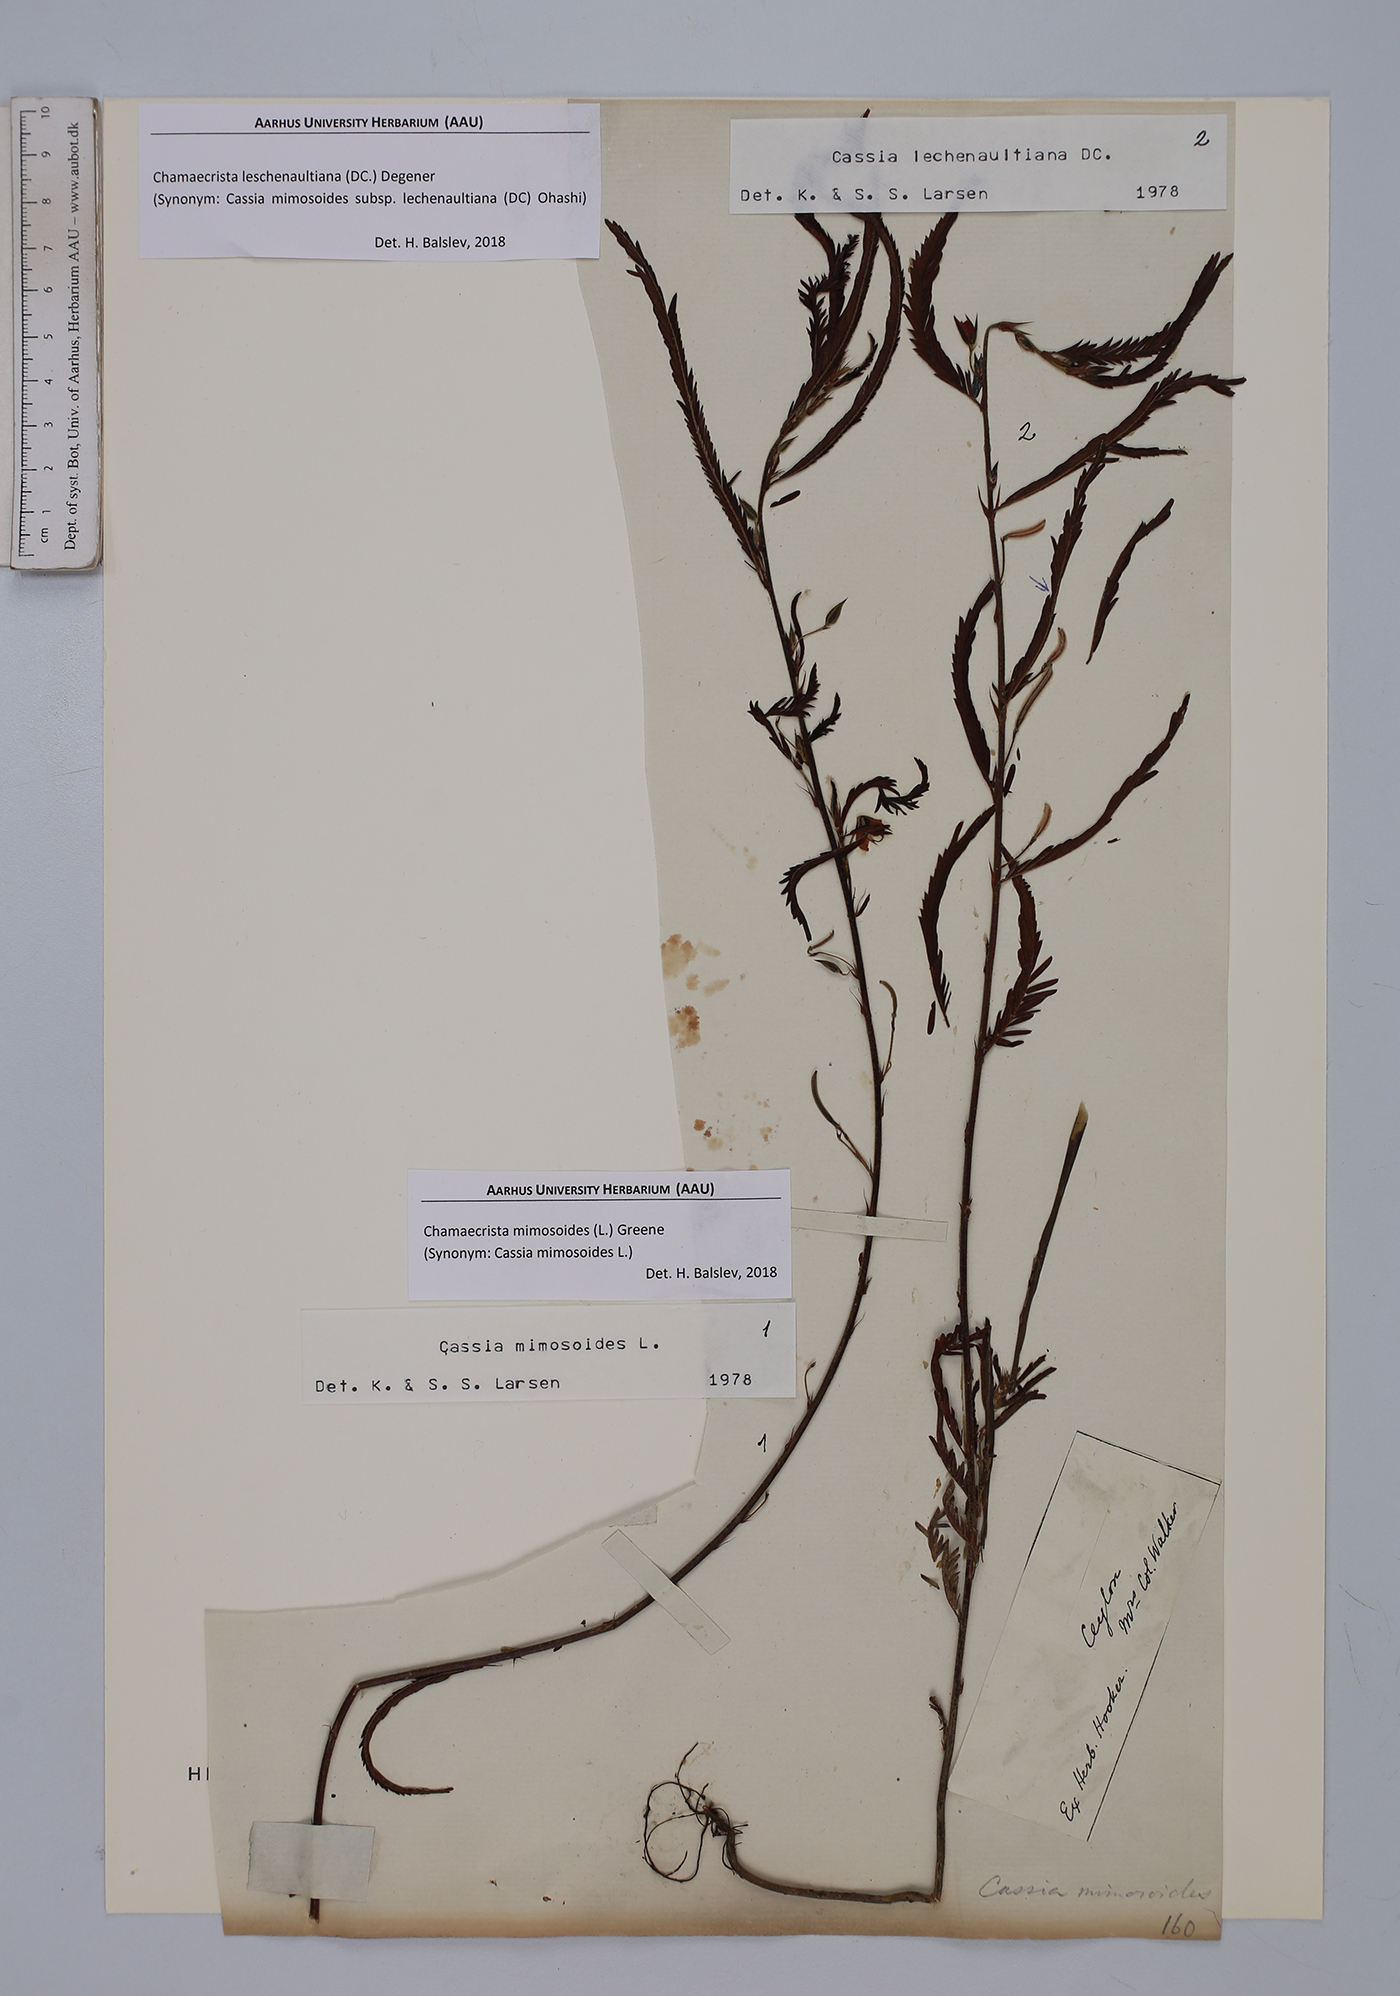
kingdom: Plantae
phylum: Tracheophyta
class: Magnoliopsida
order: Fabales
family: Fabaceae
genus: Chamaecrista
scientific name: Chamaecrista mimosoides
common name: Fish-bone cassia
